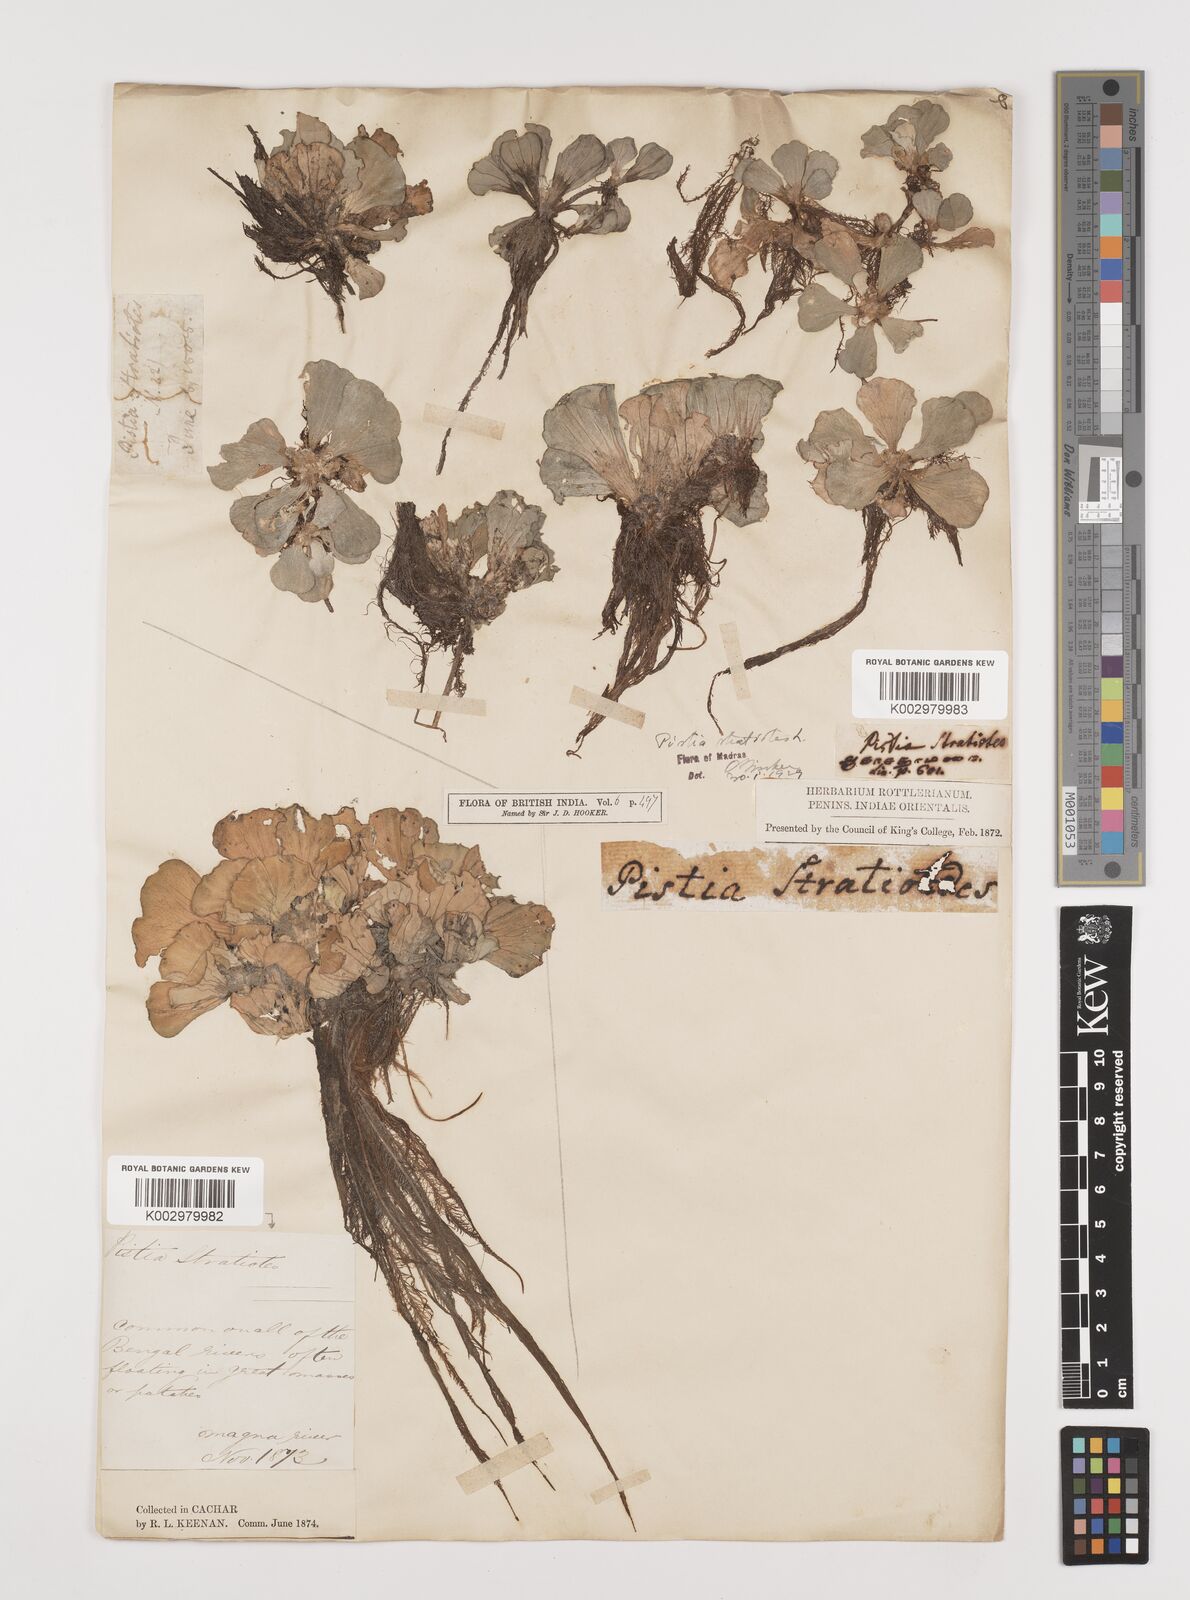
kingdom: Plantae
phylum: Tracheophyta
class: Liliopsida
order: Alismatales
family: Araceae
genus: Pistia
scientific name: Pistia stratiotes
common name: Water lettuce
